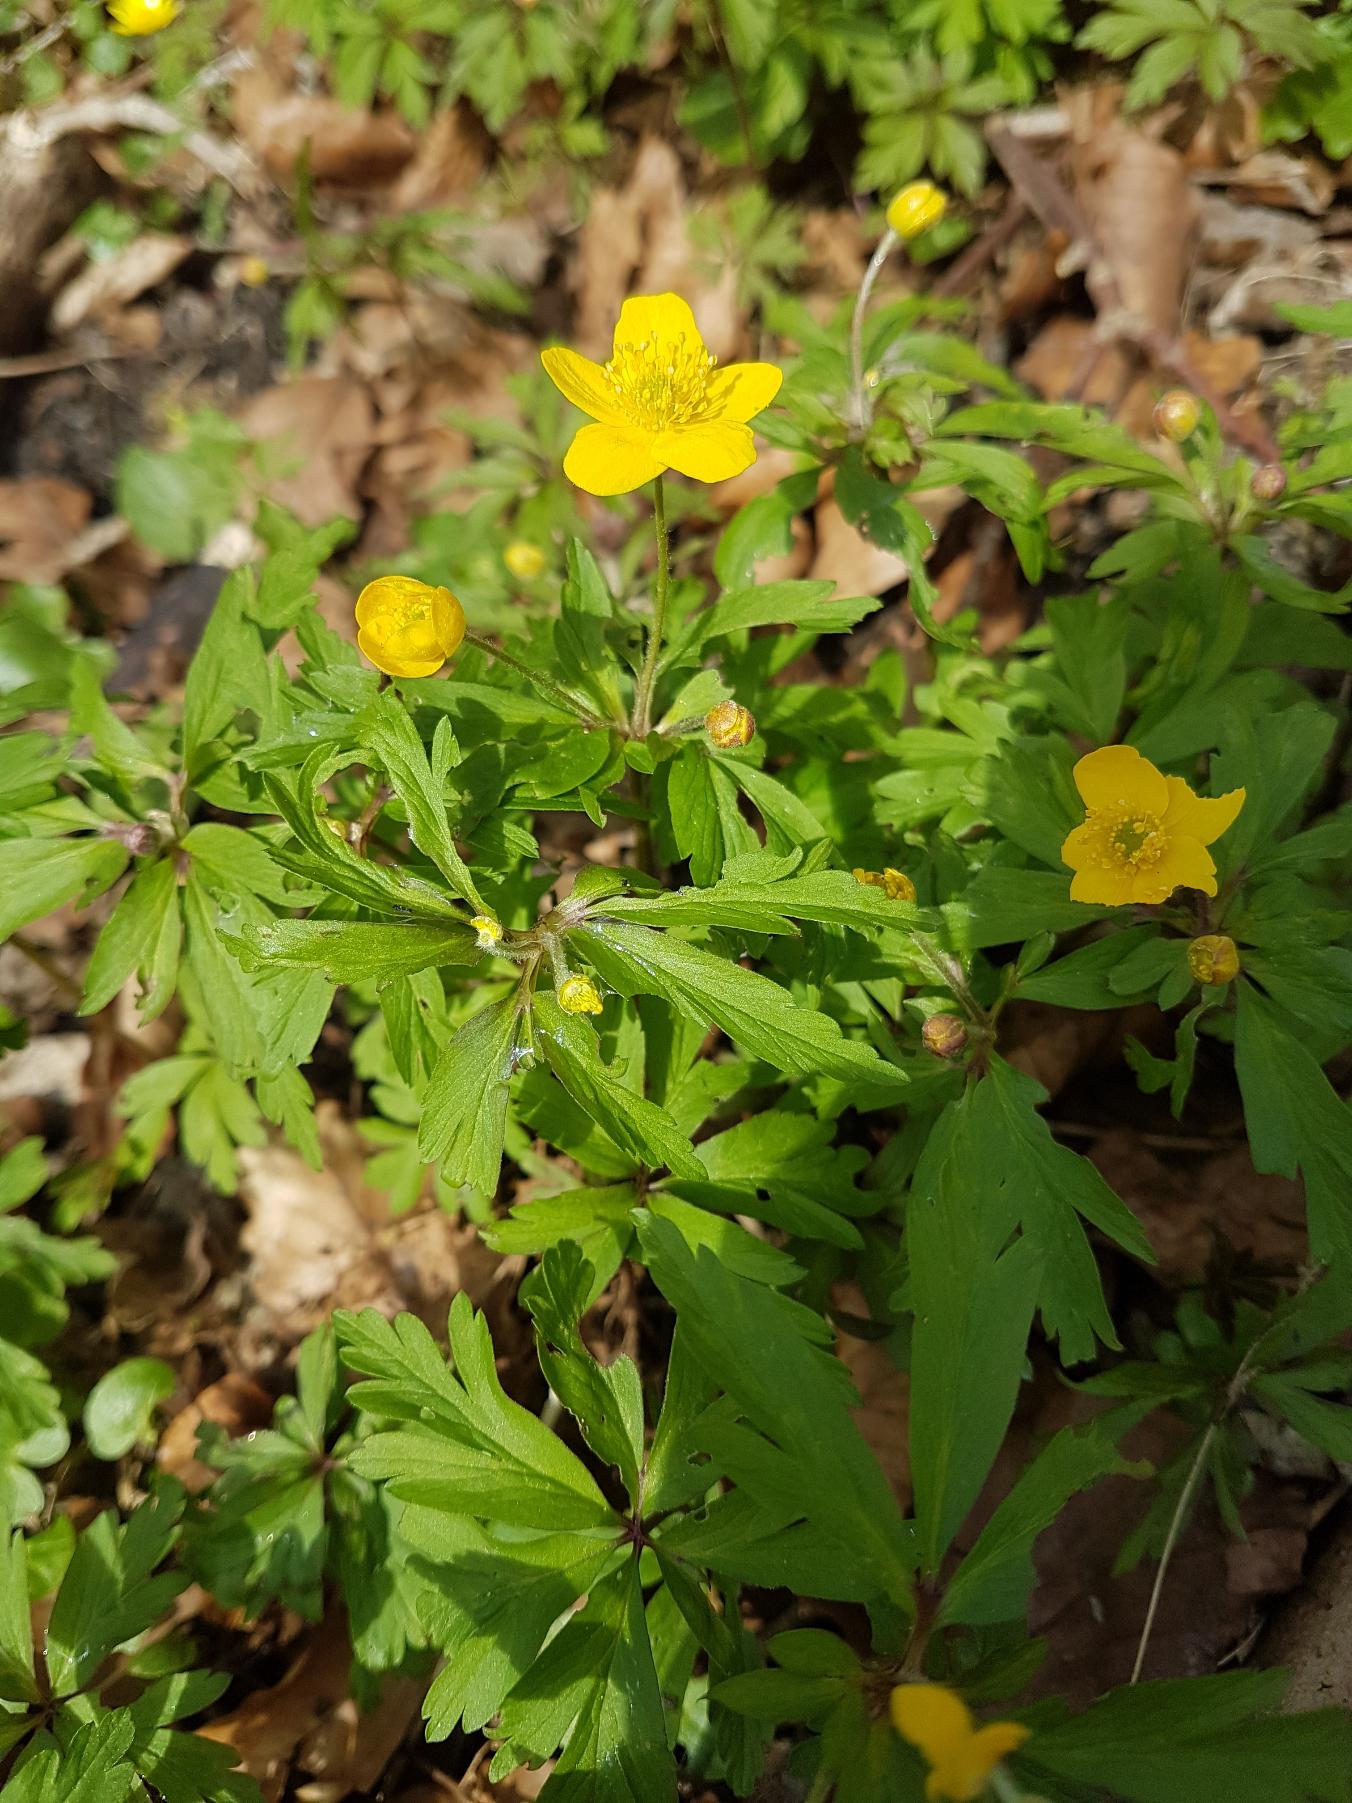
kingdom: Plantae
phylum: Tracheophyta
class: Magnoliopsida
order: Ranunculales
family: Ranunculaceae
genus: Anemone
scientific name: Anemone ranunculoides
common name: Gul anemone
